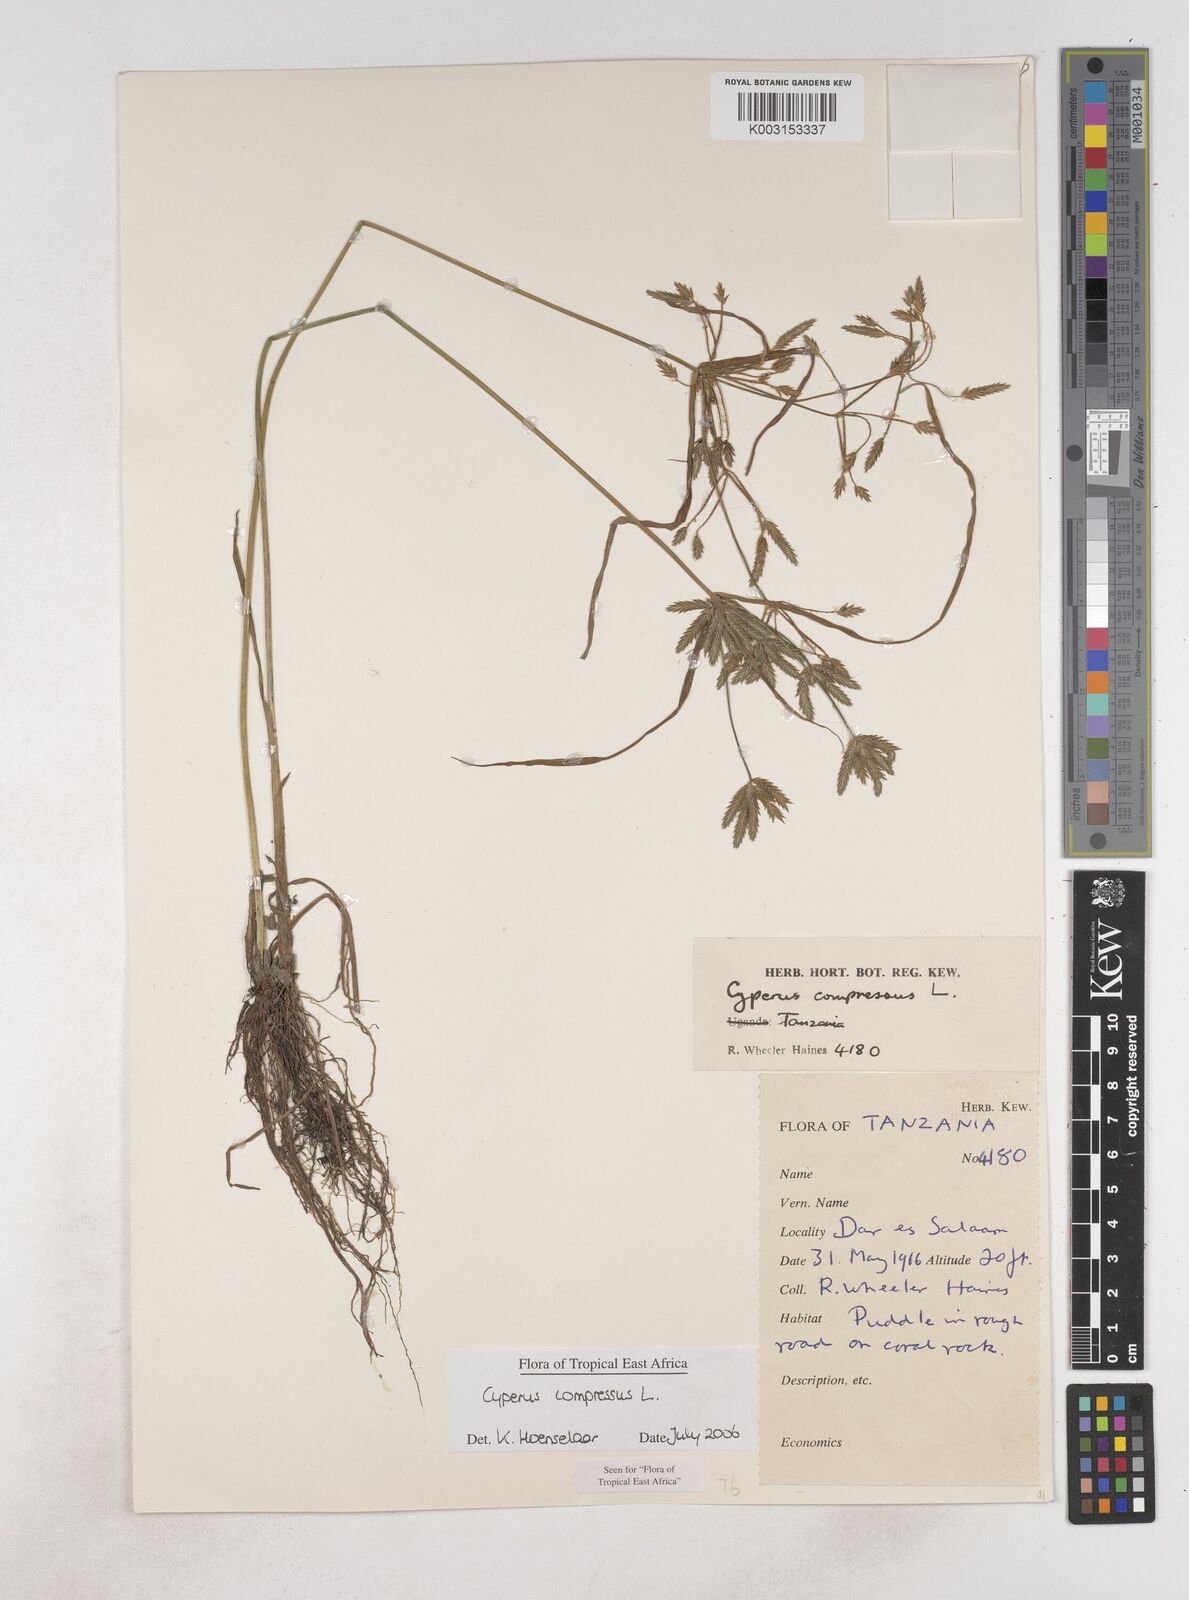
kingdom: Plantae
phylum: Tracheophyta
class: Liliopsida
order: Poales
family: Cyperaceae
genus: Cyperus
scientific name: Cyperus compressus
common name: Poorland flatsedge
